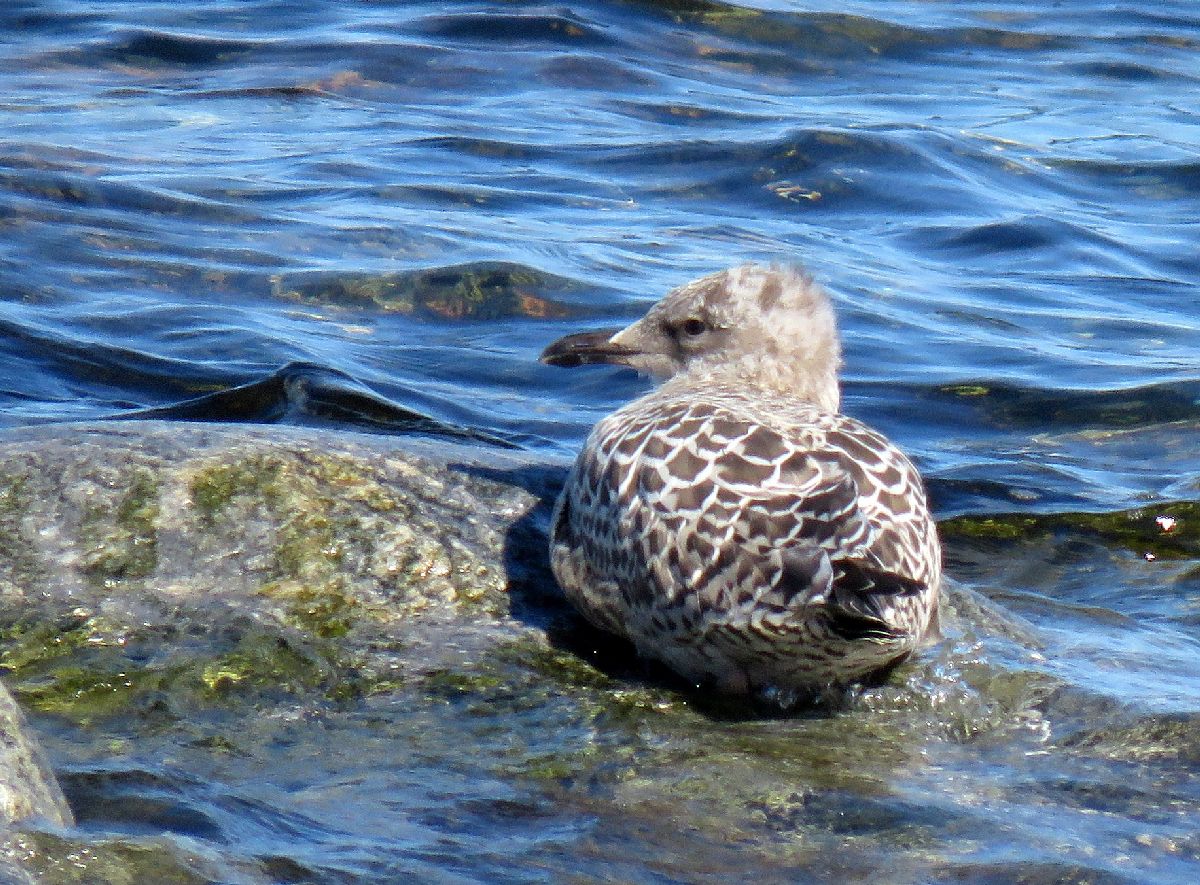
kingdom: Animalia
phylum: Chordata
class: Aves
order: Charadriiformes
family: Laridae
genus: Larus
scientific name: Larus marinus
